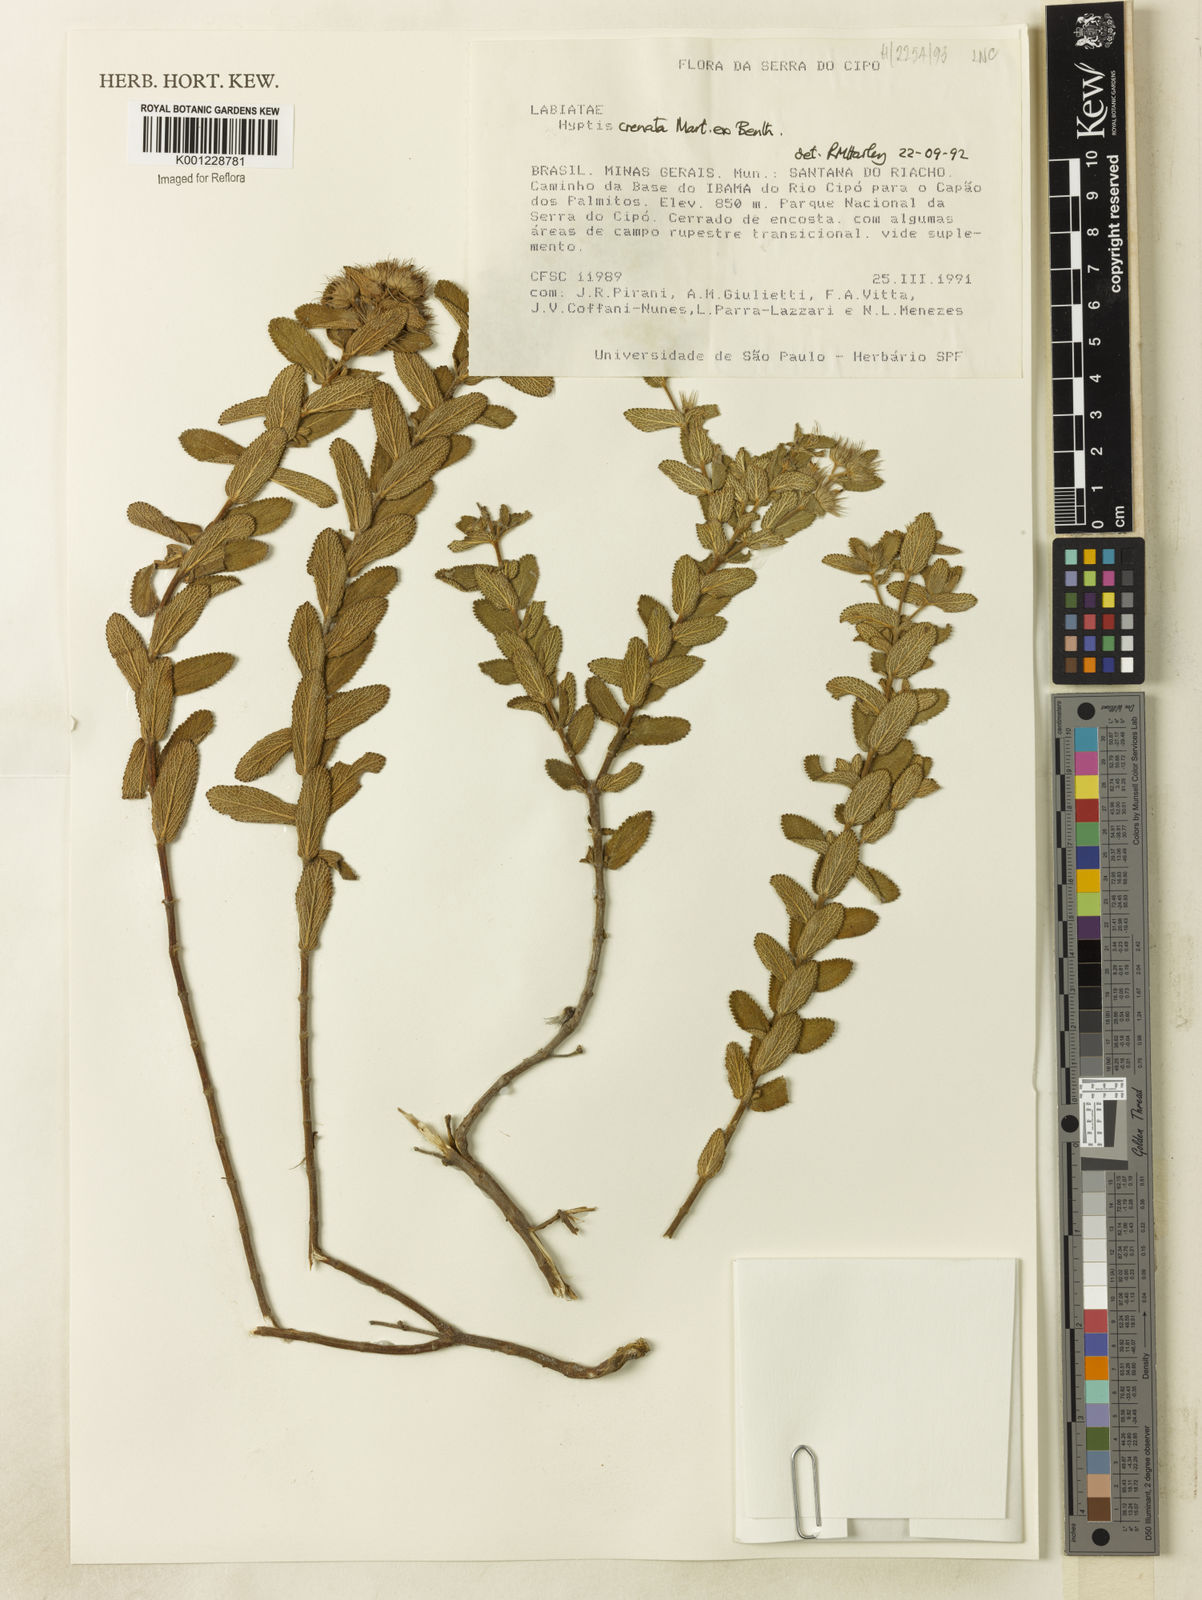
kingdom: Plantae
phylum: Tracheophyta
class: Magnoliopsida
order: Lamiales
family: Lamiaceae
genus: Hyptis
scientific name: Hyptis crenata
